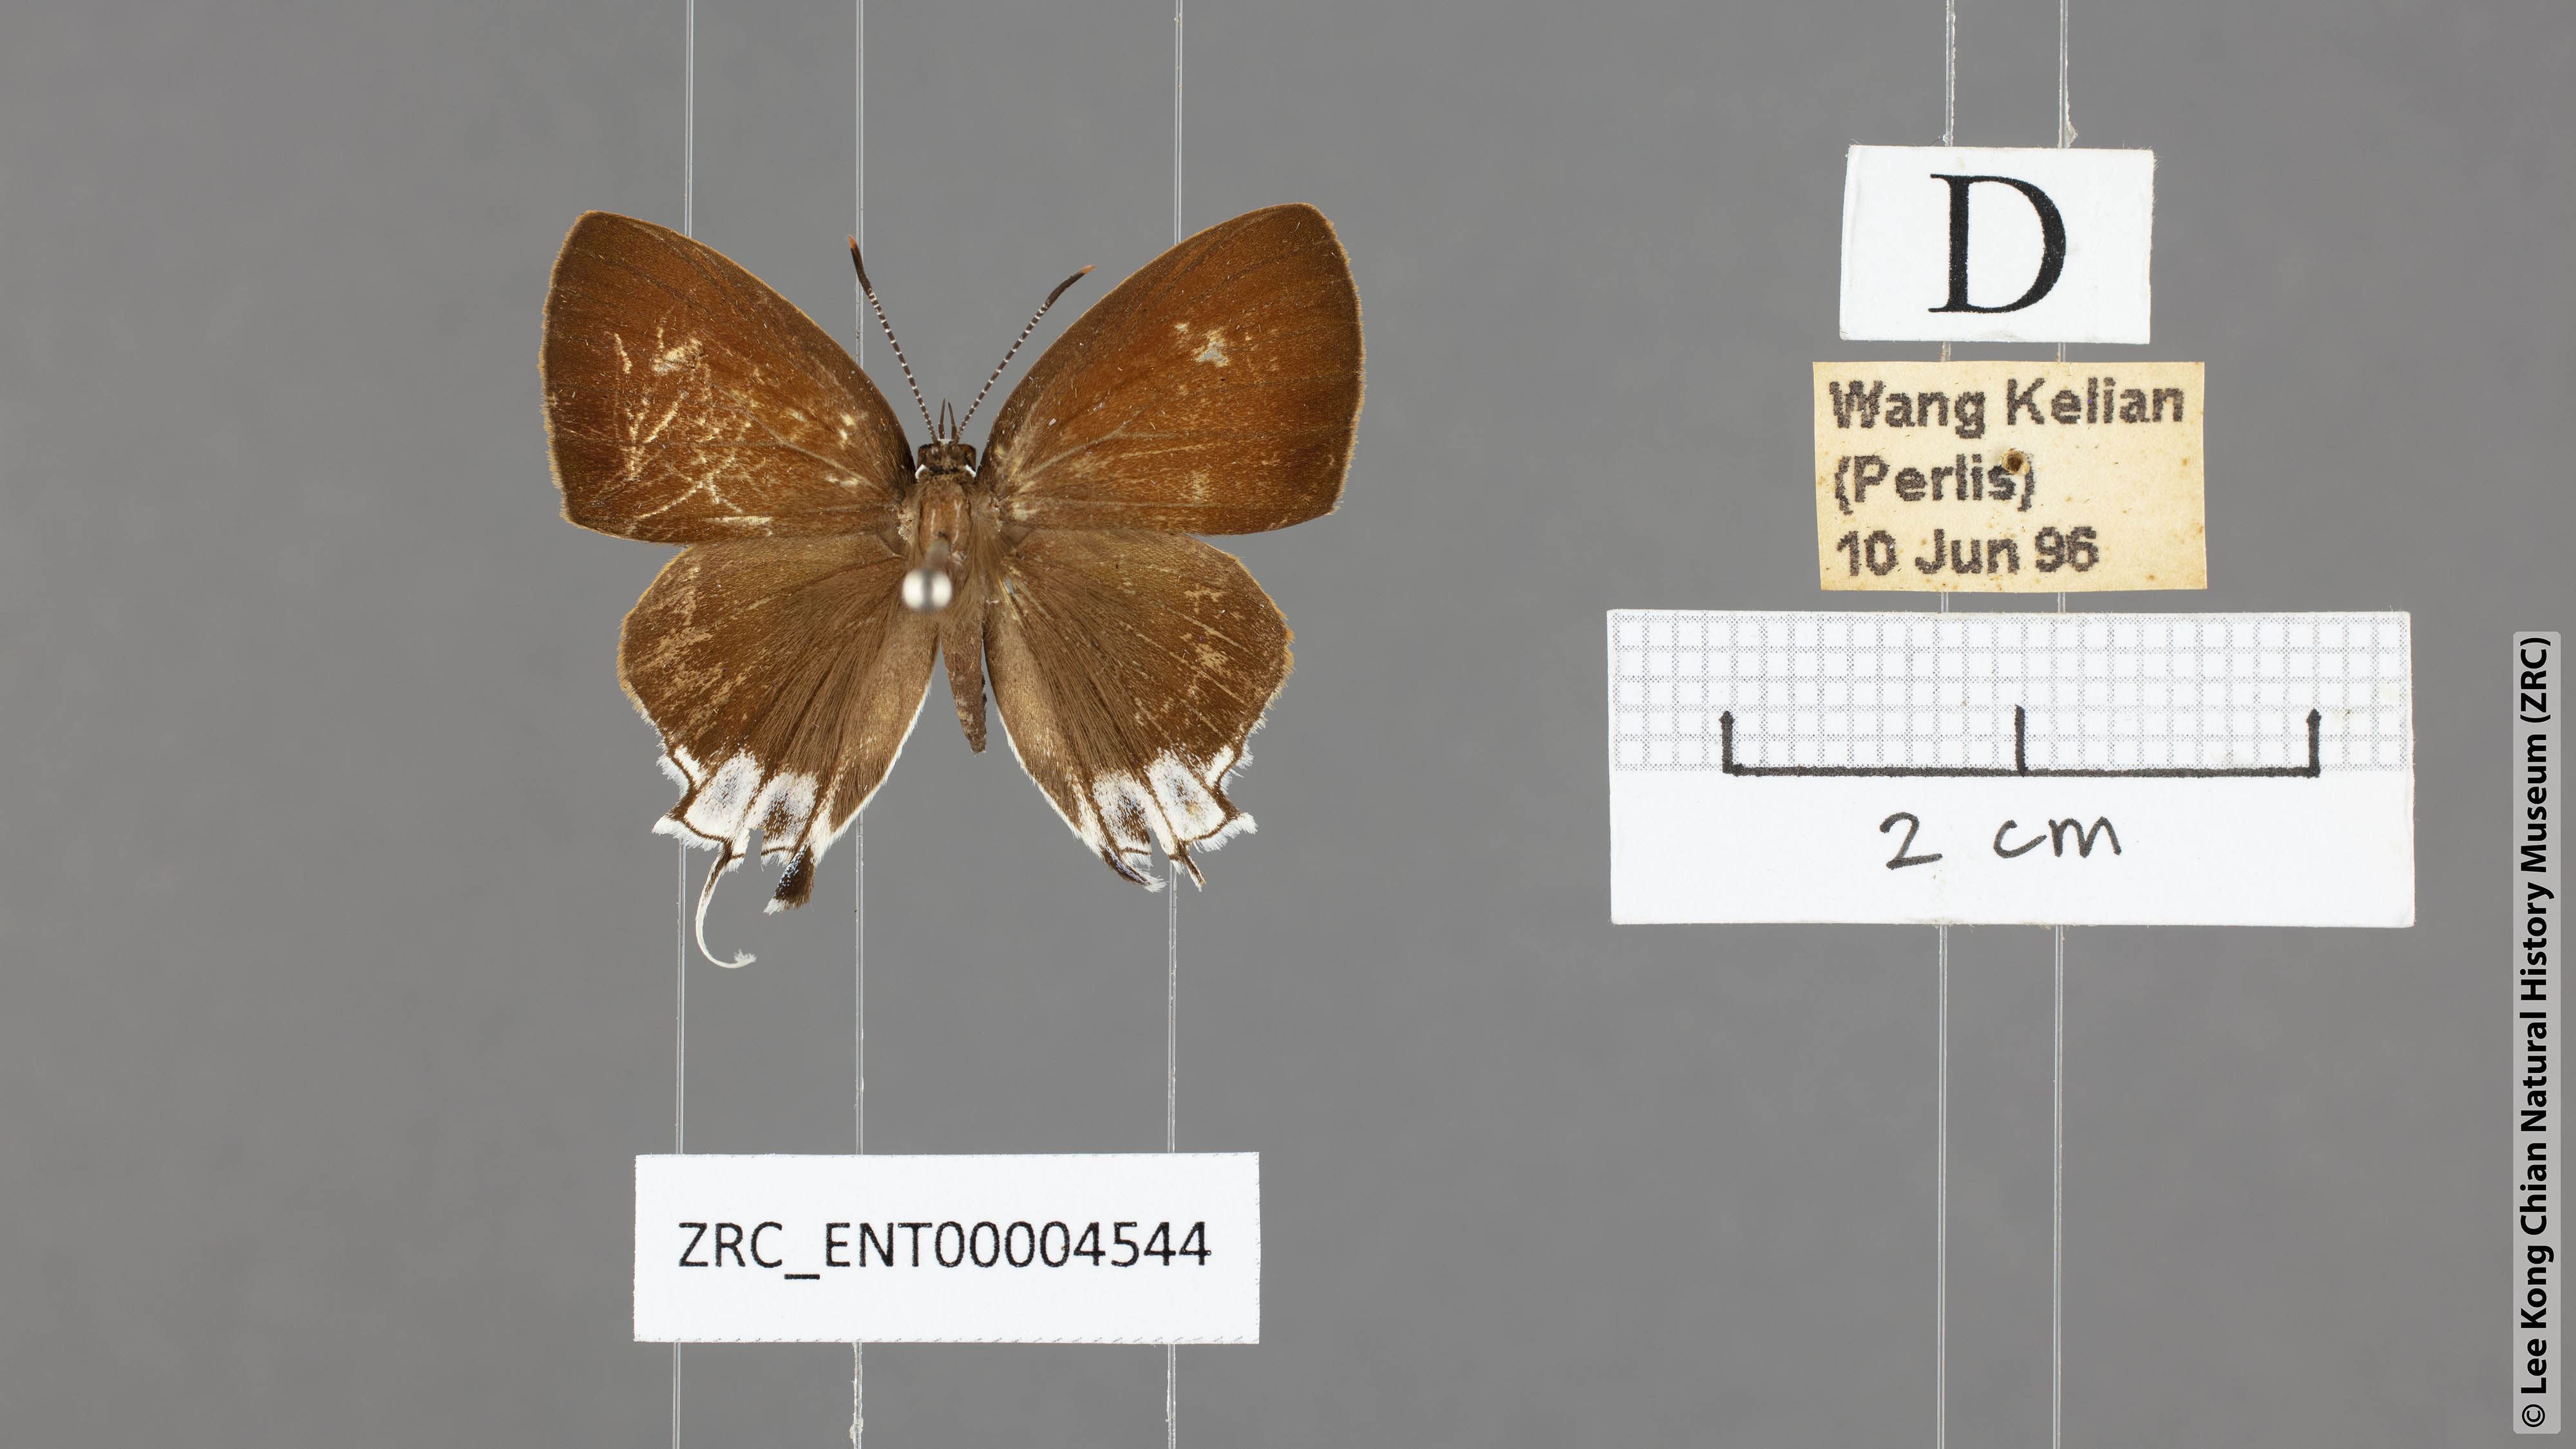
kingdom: Animalia
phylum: Arthropoda
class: Insecta
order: Lepidoptera
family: Lycaenidae
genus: Sithon
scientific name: Sithon nedymond
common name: Plush
